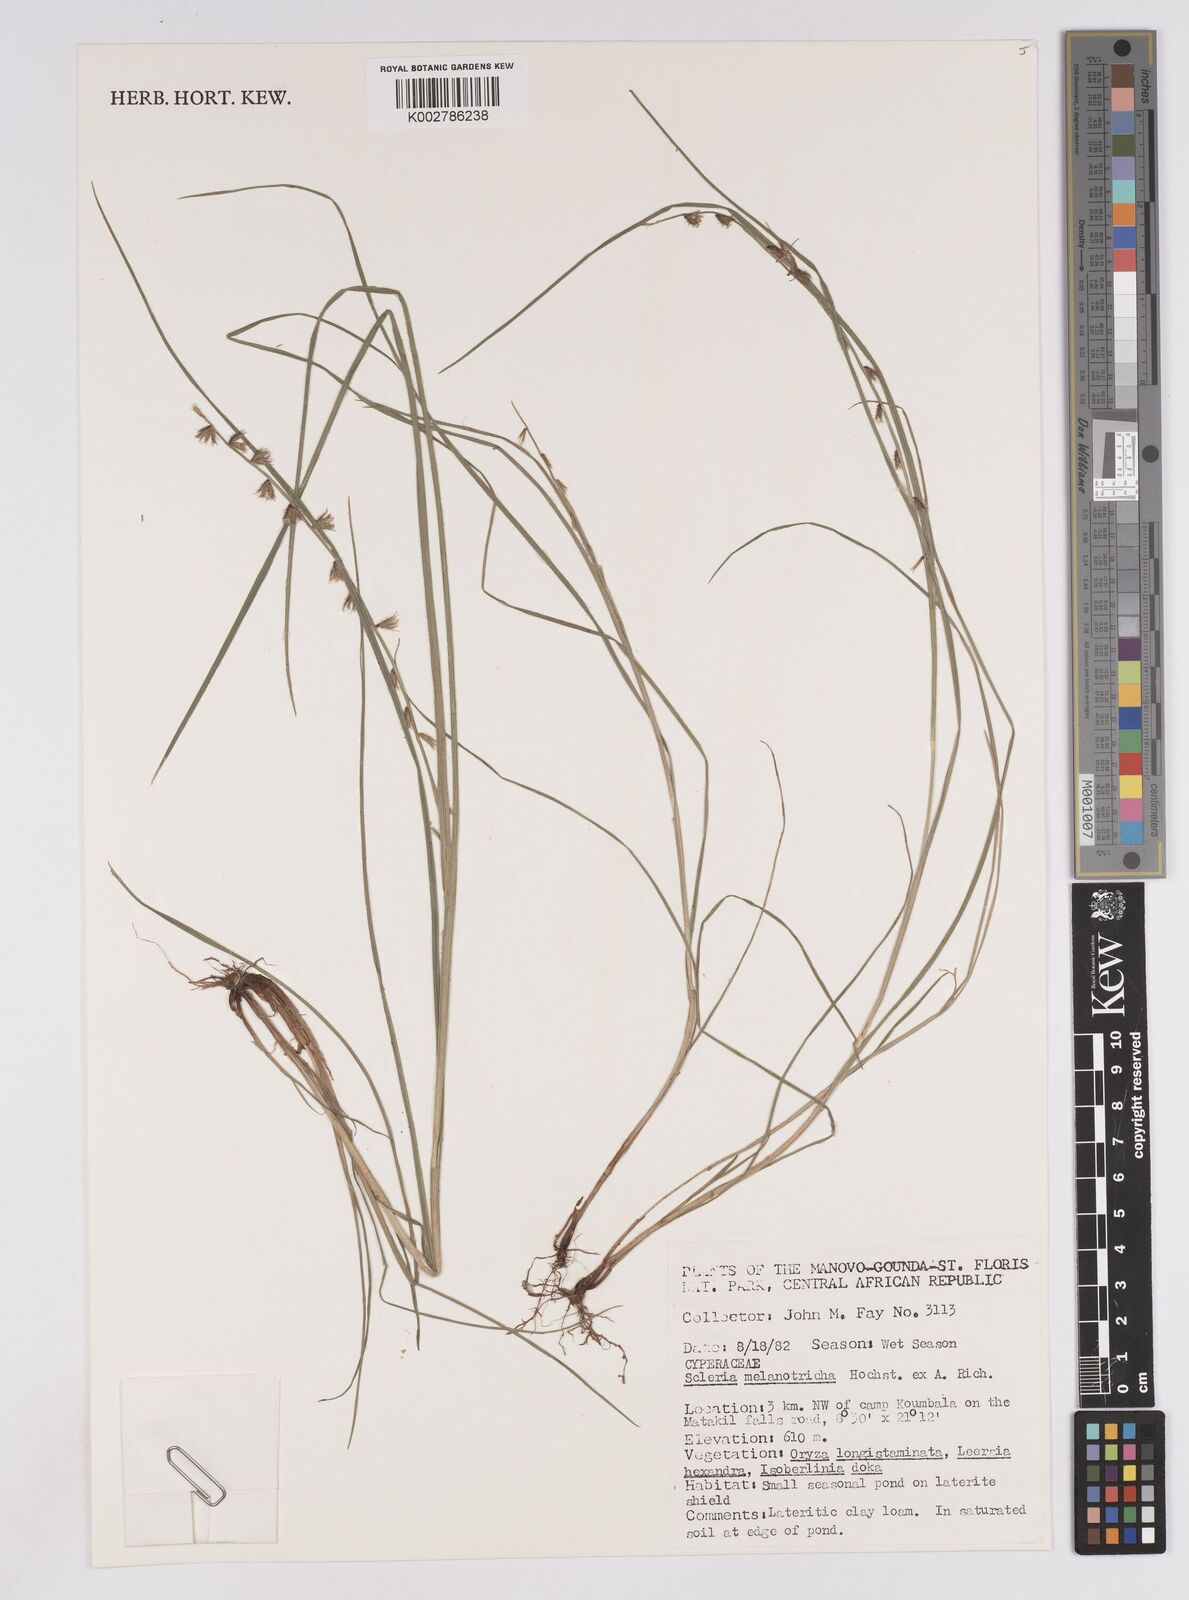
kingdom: Plantae
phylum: Tracheophyta
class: Liliopsida
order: Poales
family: Cyperaceae
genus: Scleria
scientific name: Scleria melanotricha
